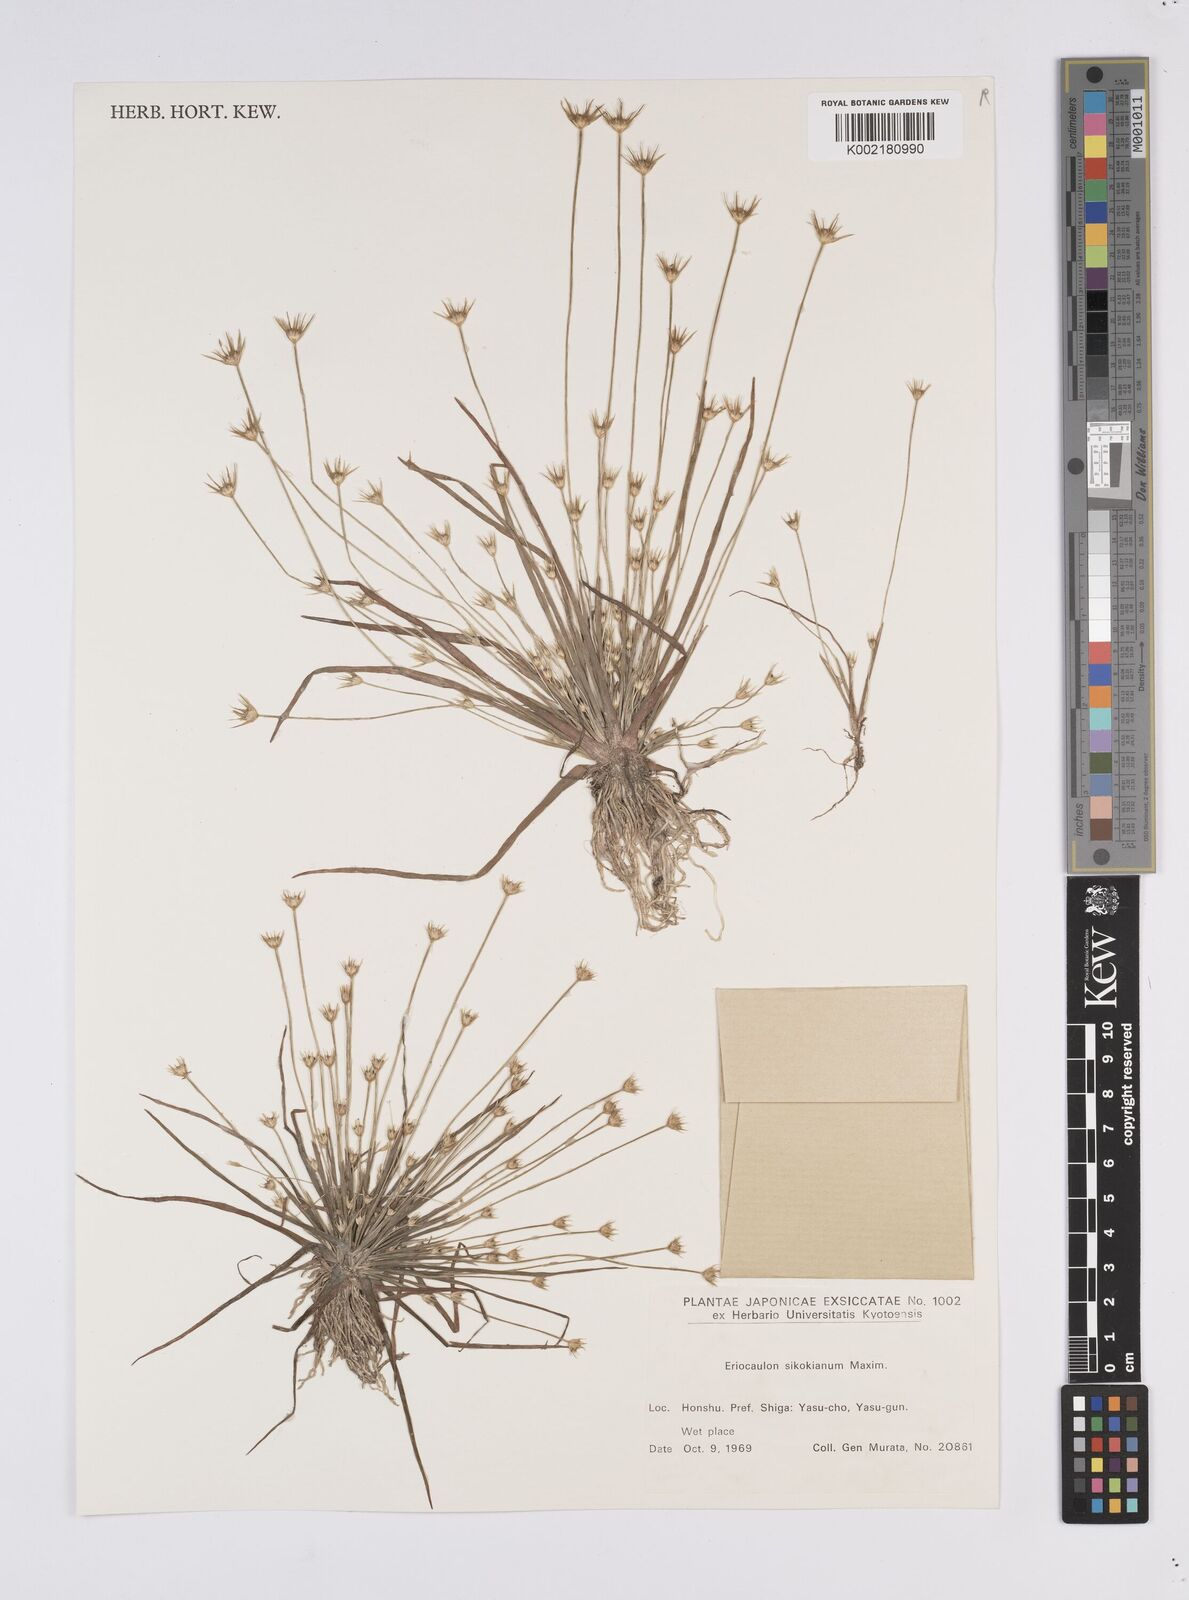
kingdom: Plantae
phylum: Tracheophyta
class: Liliopsida
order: Poales
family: Eriocaulaceae
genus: Eriocaulon
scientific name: Eriocaulon miquelianum
